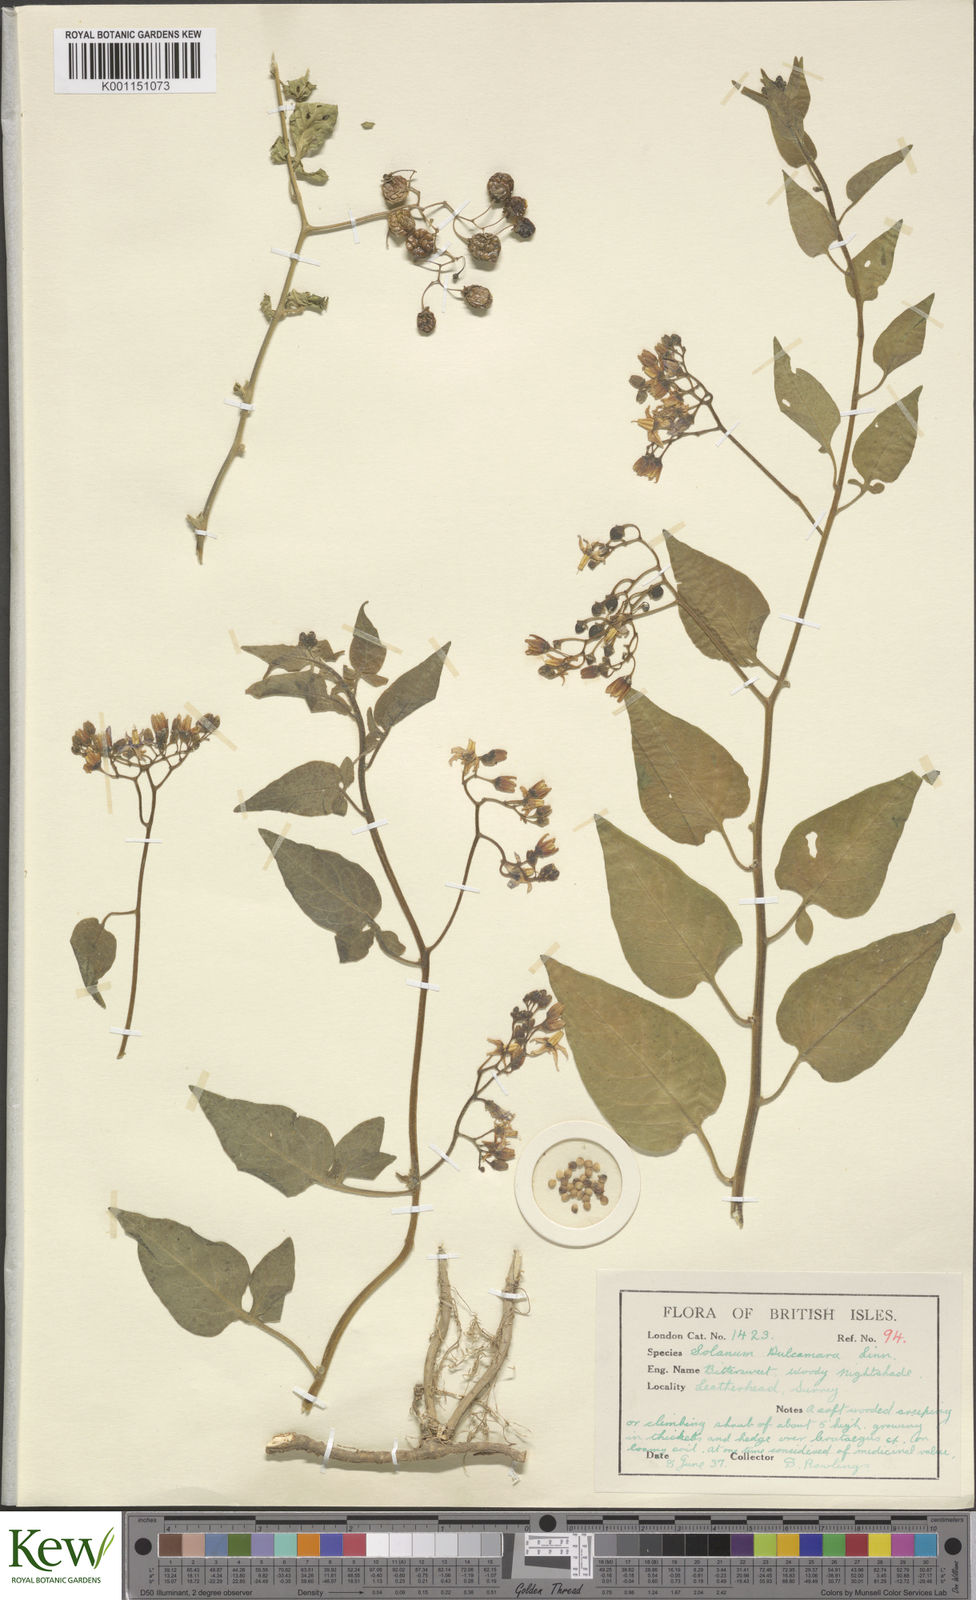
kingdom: Plantae
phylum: Tracheophyta
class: Magnoliopsida
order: Solanales
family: Solanaceae
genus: Solanum
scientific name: Solanum dulcamara
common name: Climbing nightshade
